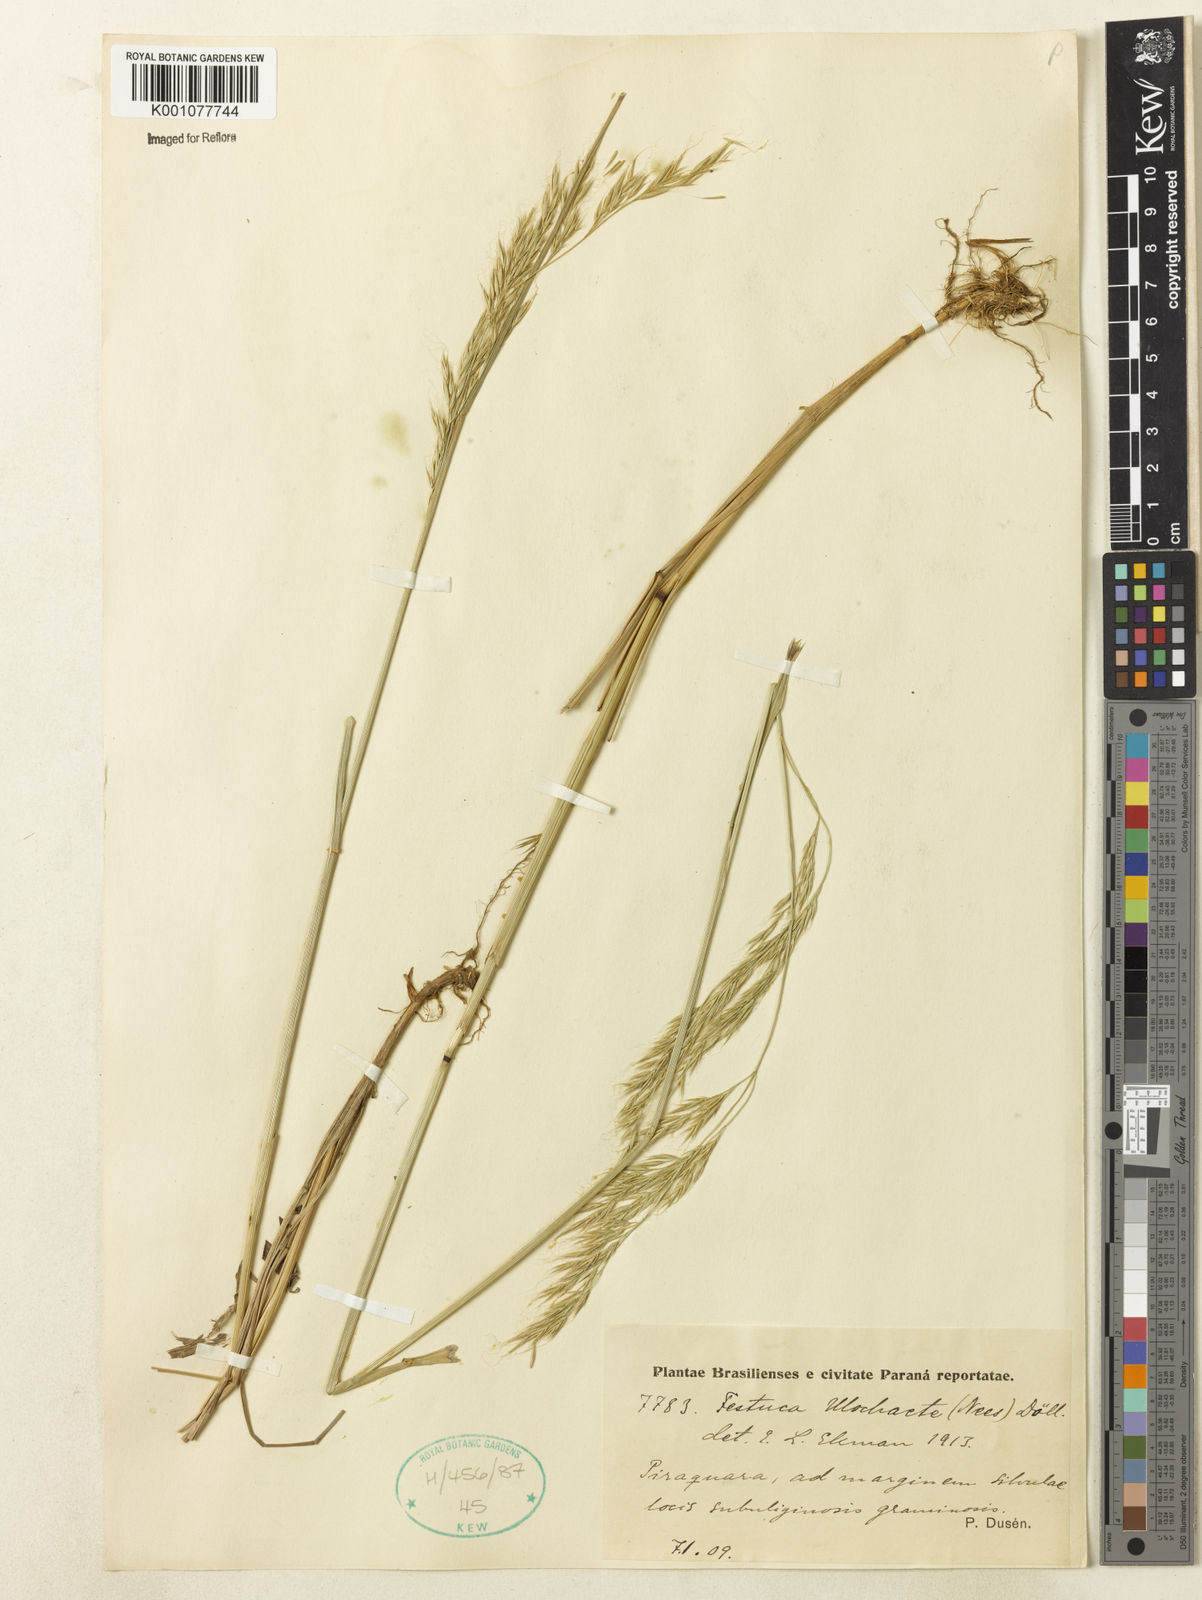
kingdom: Plantae
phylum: Tracheophyta
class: Liliopsida
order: Poales
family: Poaceae
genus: Festuca
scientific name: Festuca ulochaeta
